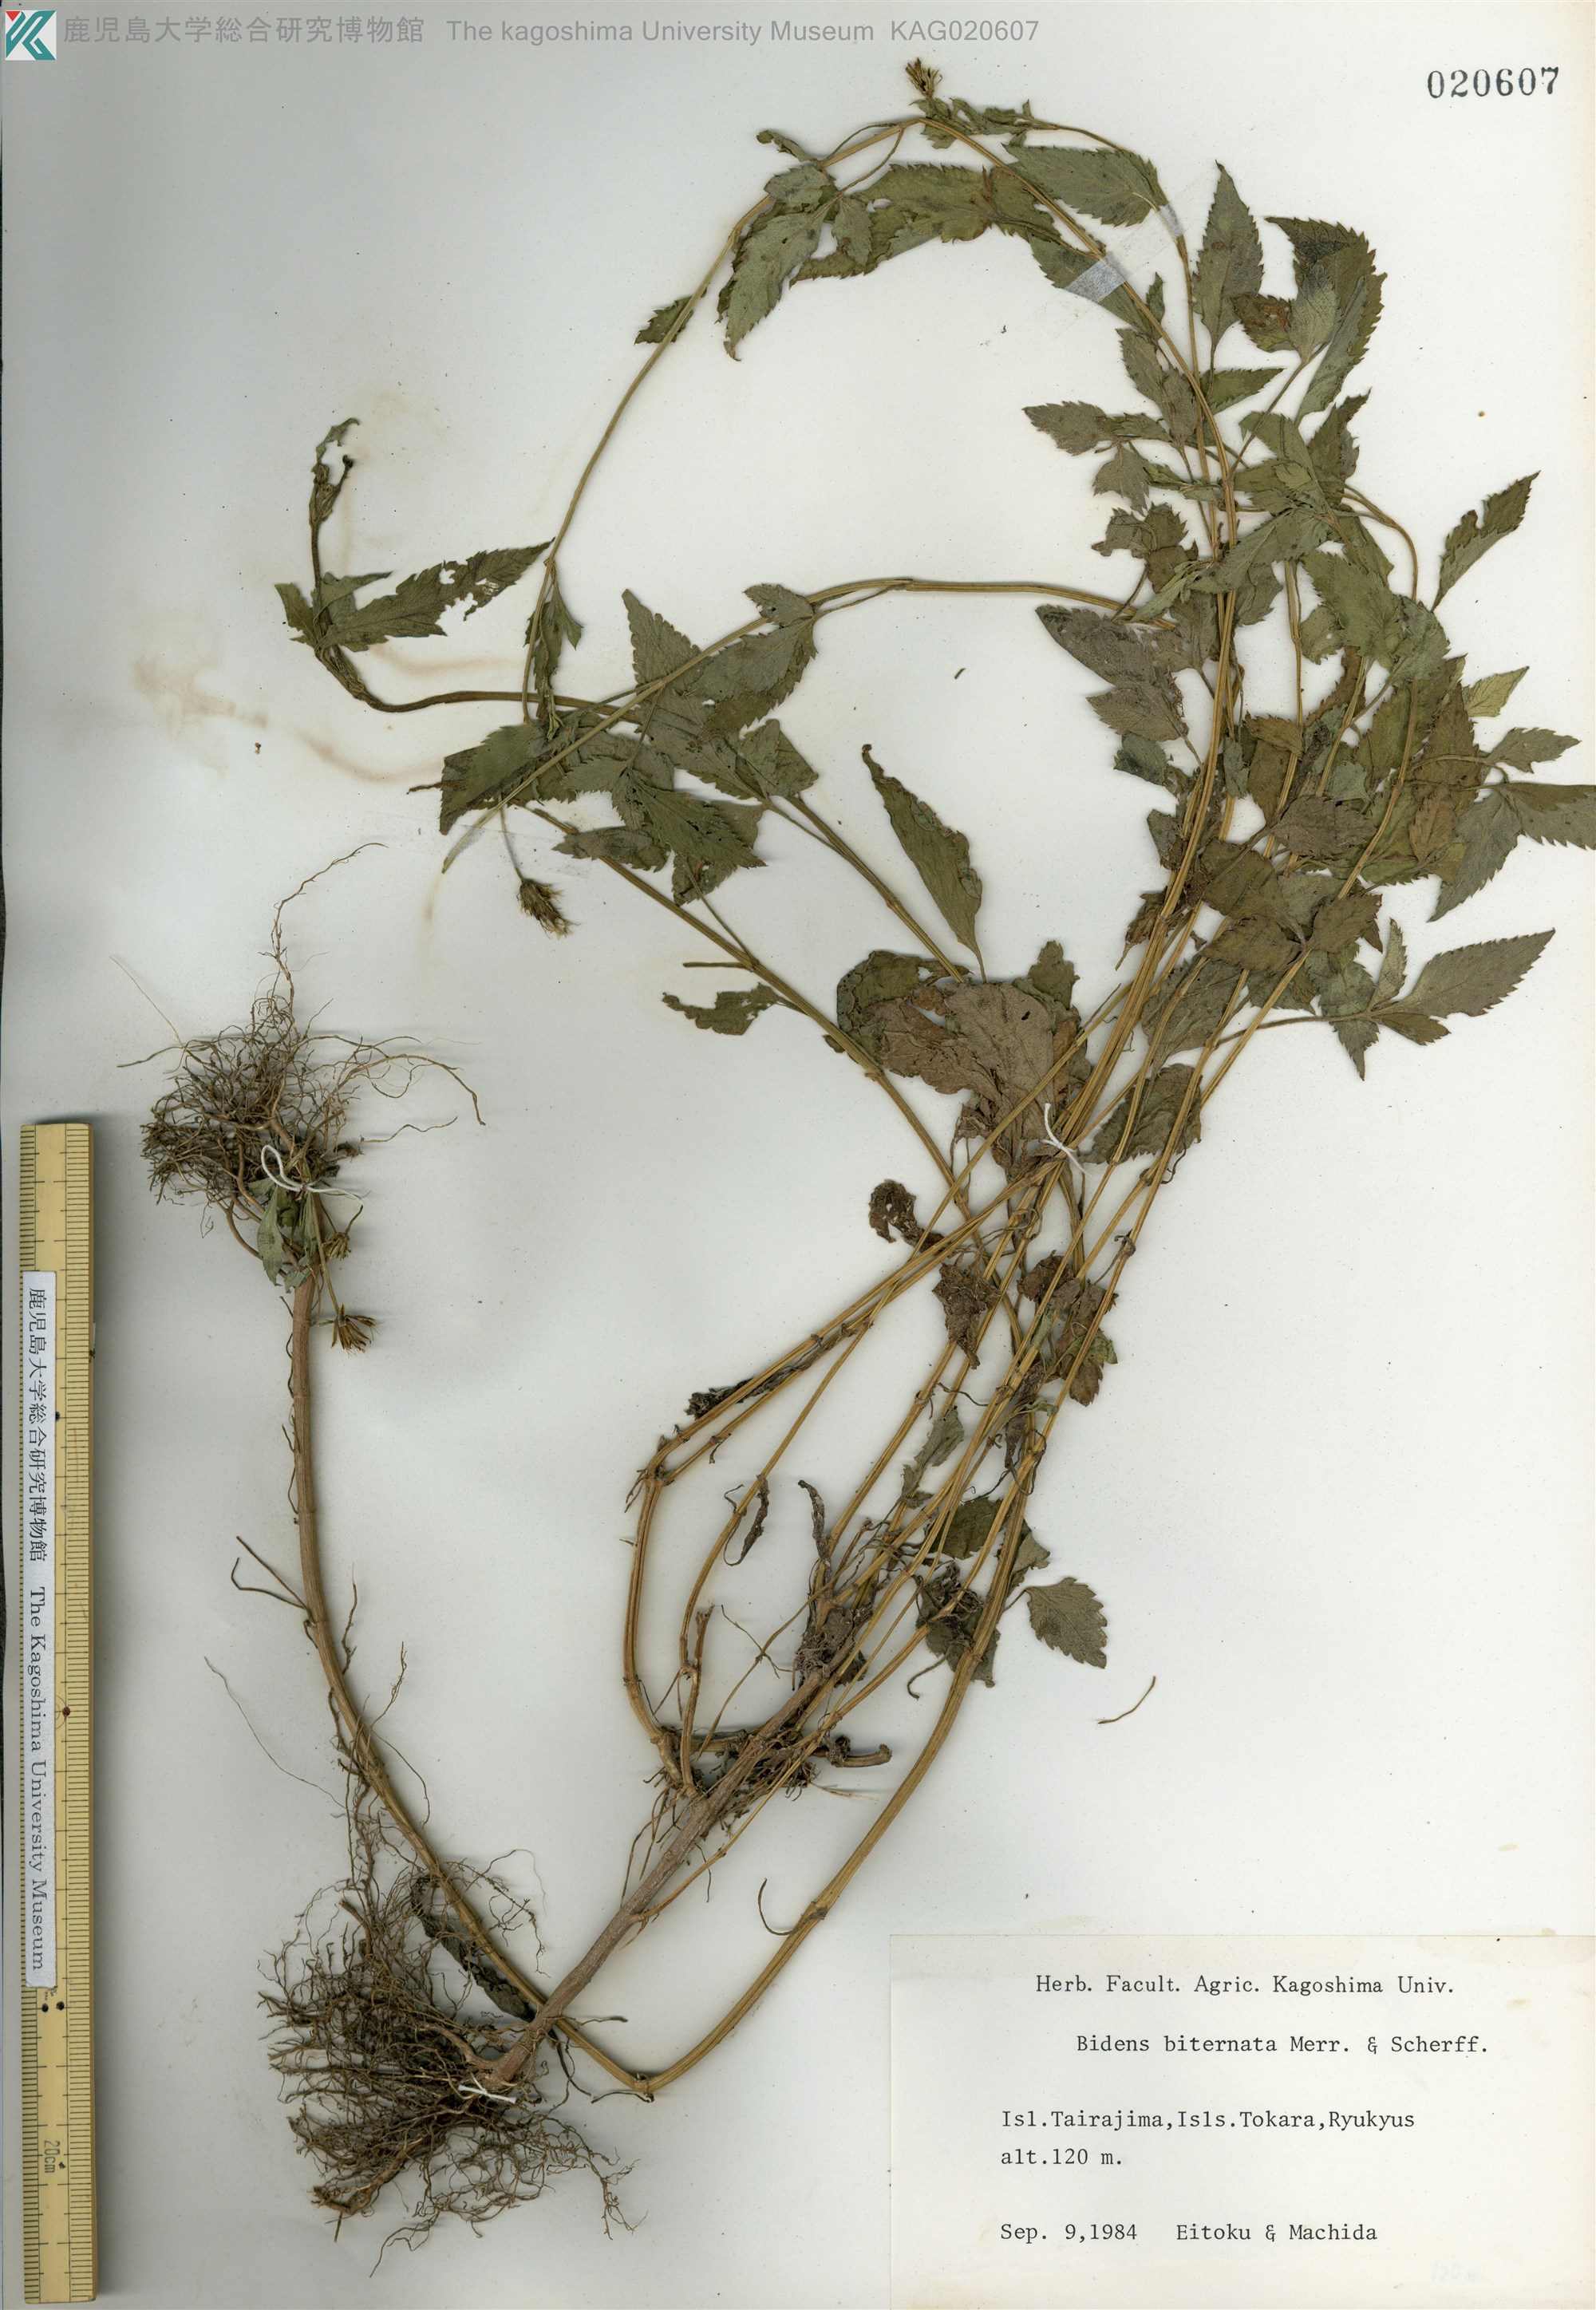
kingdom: Plantae
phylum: Tracheophyta
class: Magnoliopsida
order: Asterales
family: Asteraceae
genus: Bidens
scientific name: Bidens biternata
